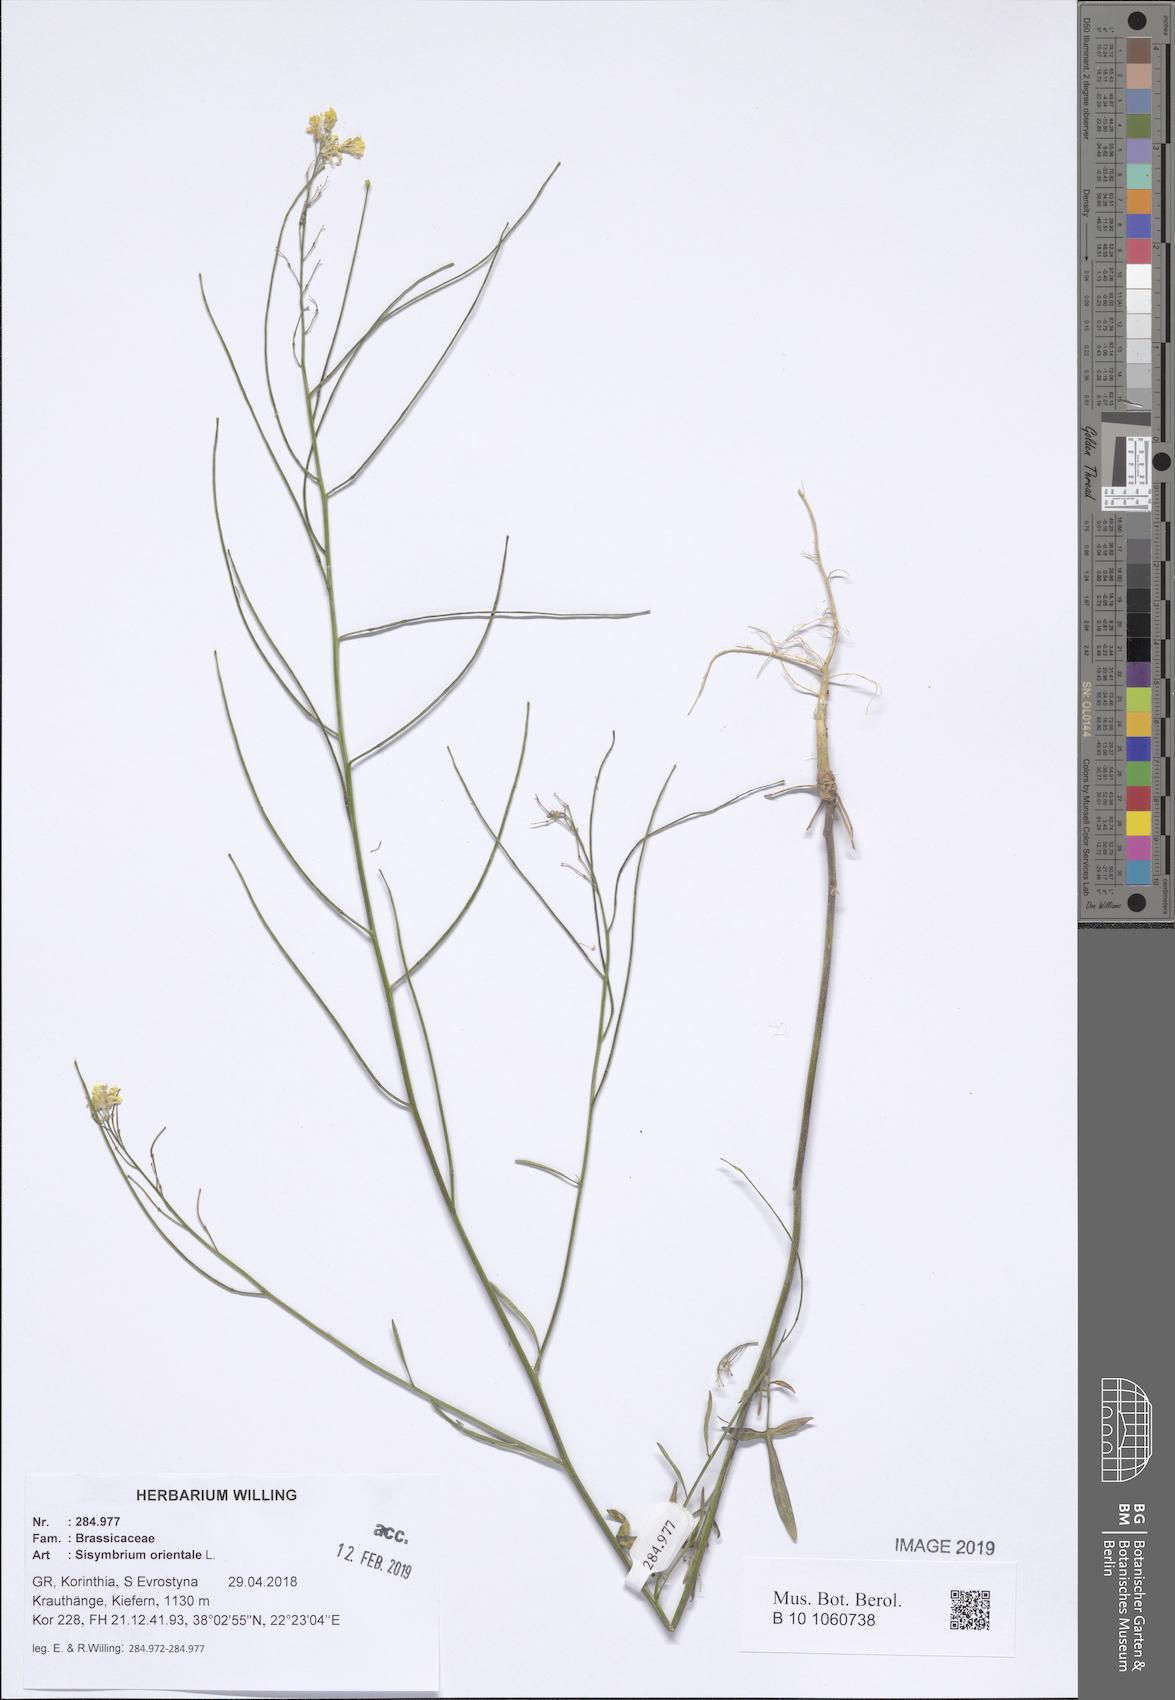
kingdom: Plantae
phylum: Tracheophyta
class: Magnoliopsida
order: Brassicales
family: Brassicaceae
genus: Sisymbrium
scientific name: Sisymbrium orientale
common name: Eastern rocket
